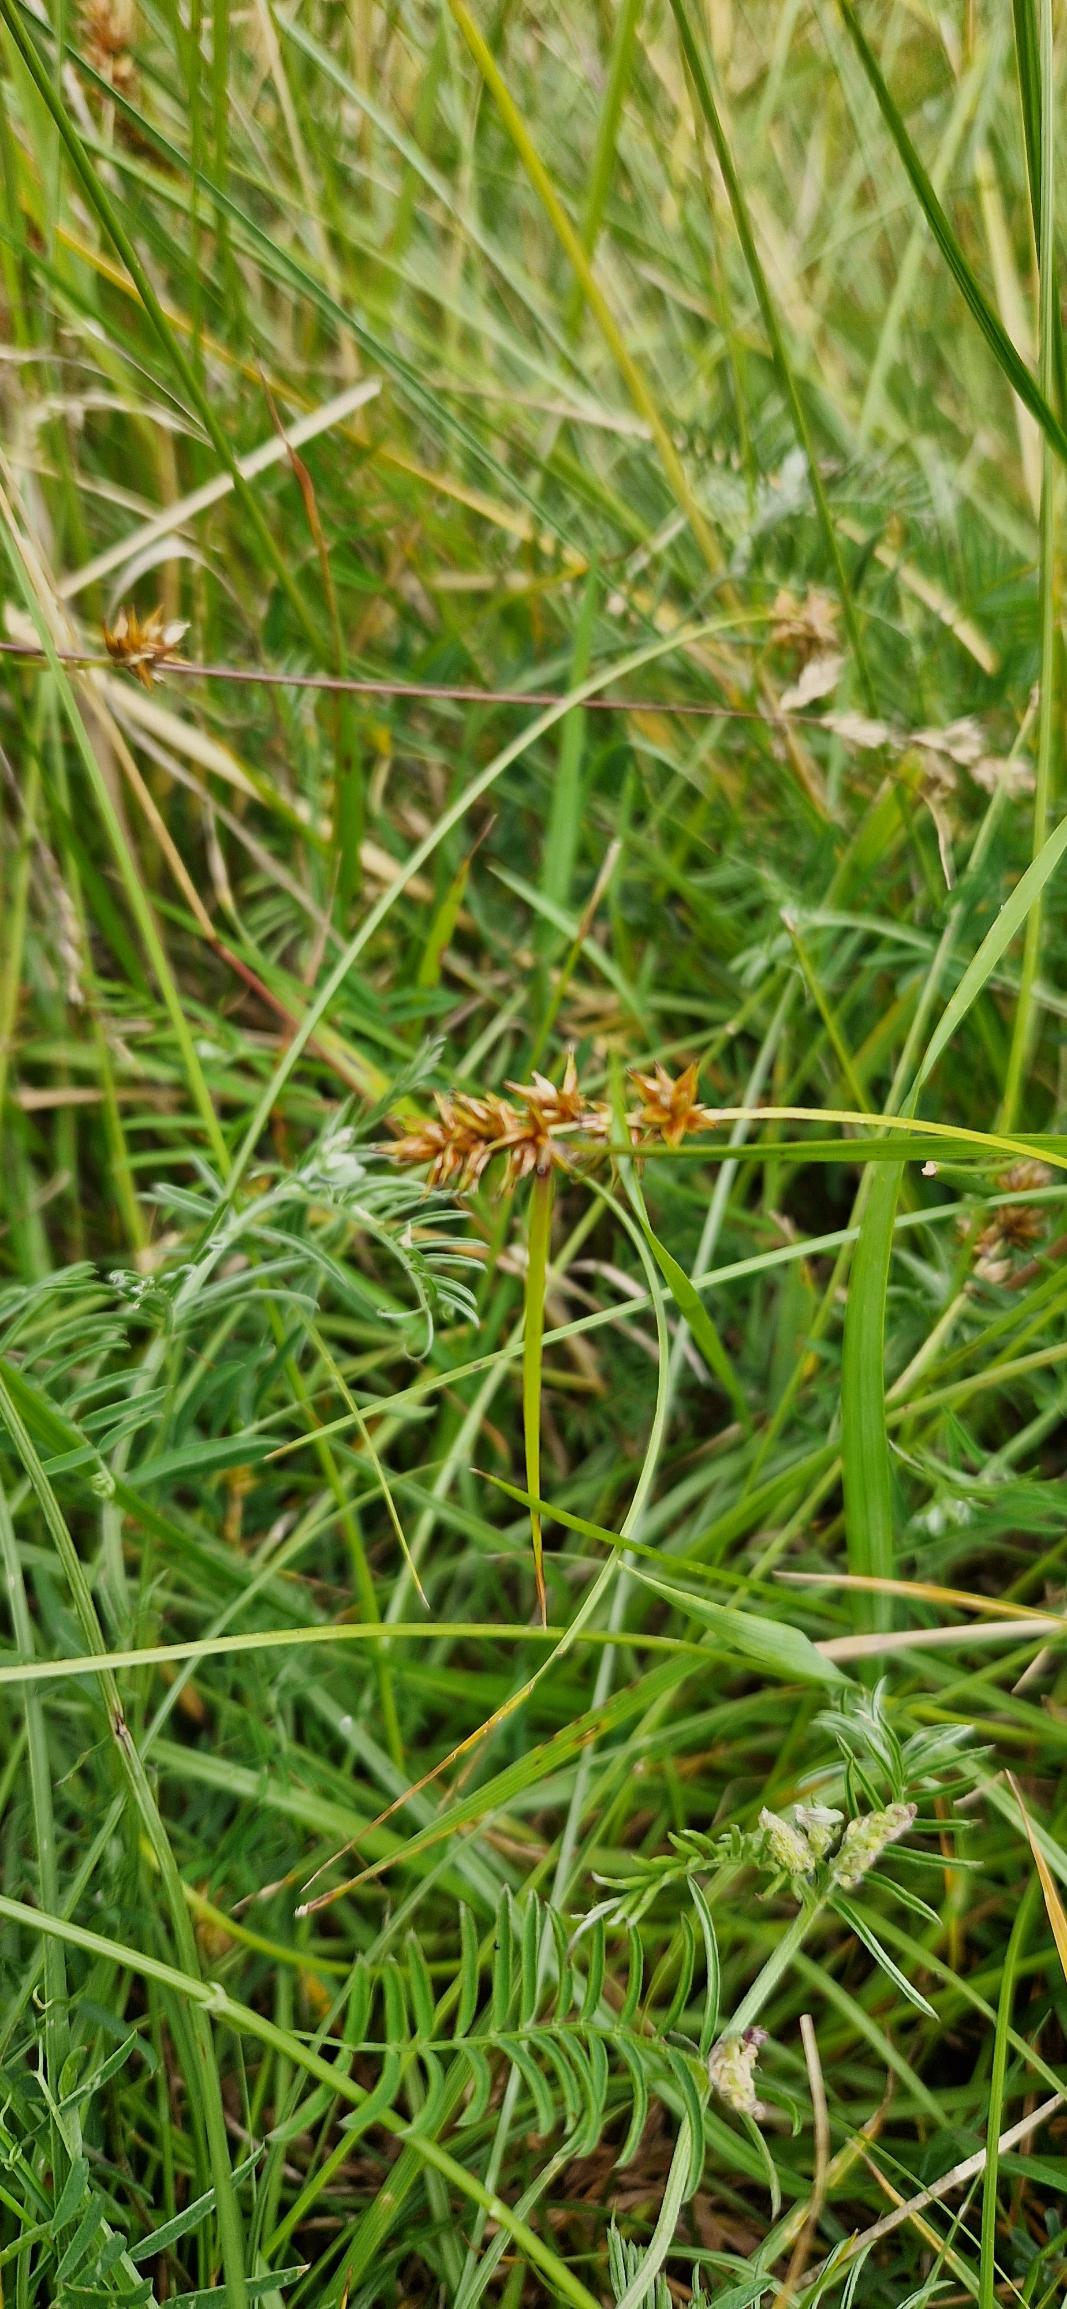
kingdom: Plantae
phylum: Tracheophyta
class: Liliopsida
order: Poales
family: Cyperaceae
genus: Carex
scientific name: Carex spicata
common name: Spidskapslet star
